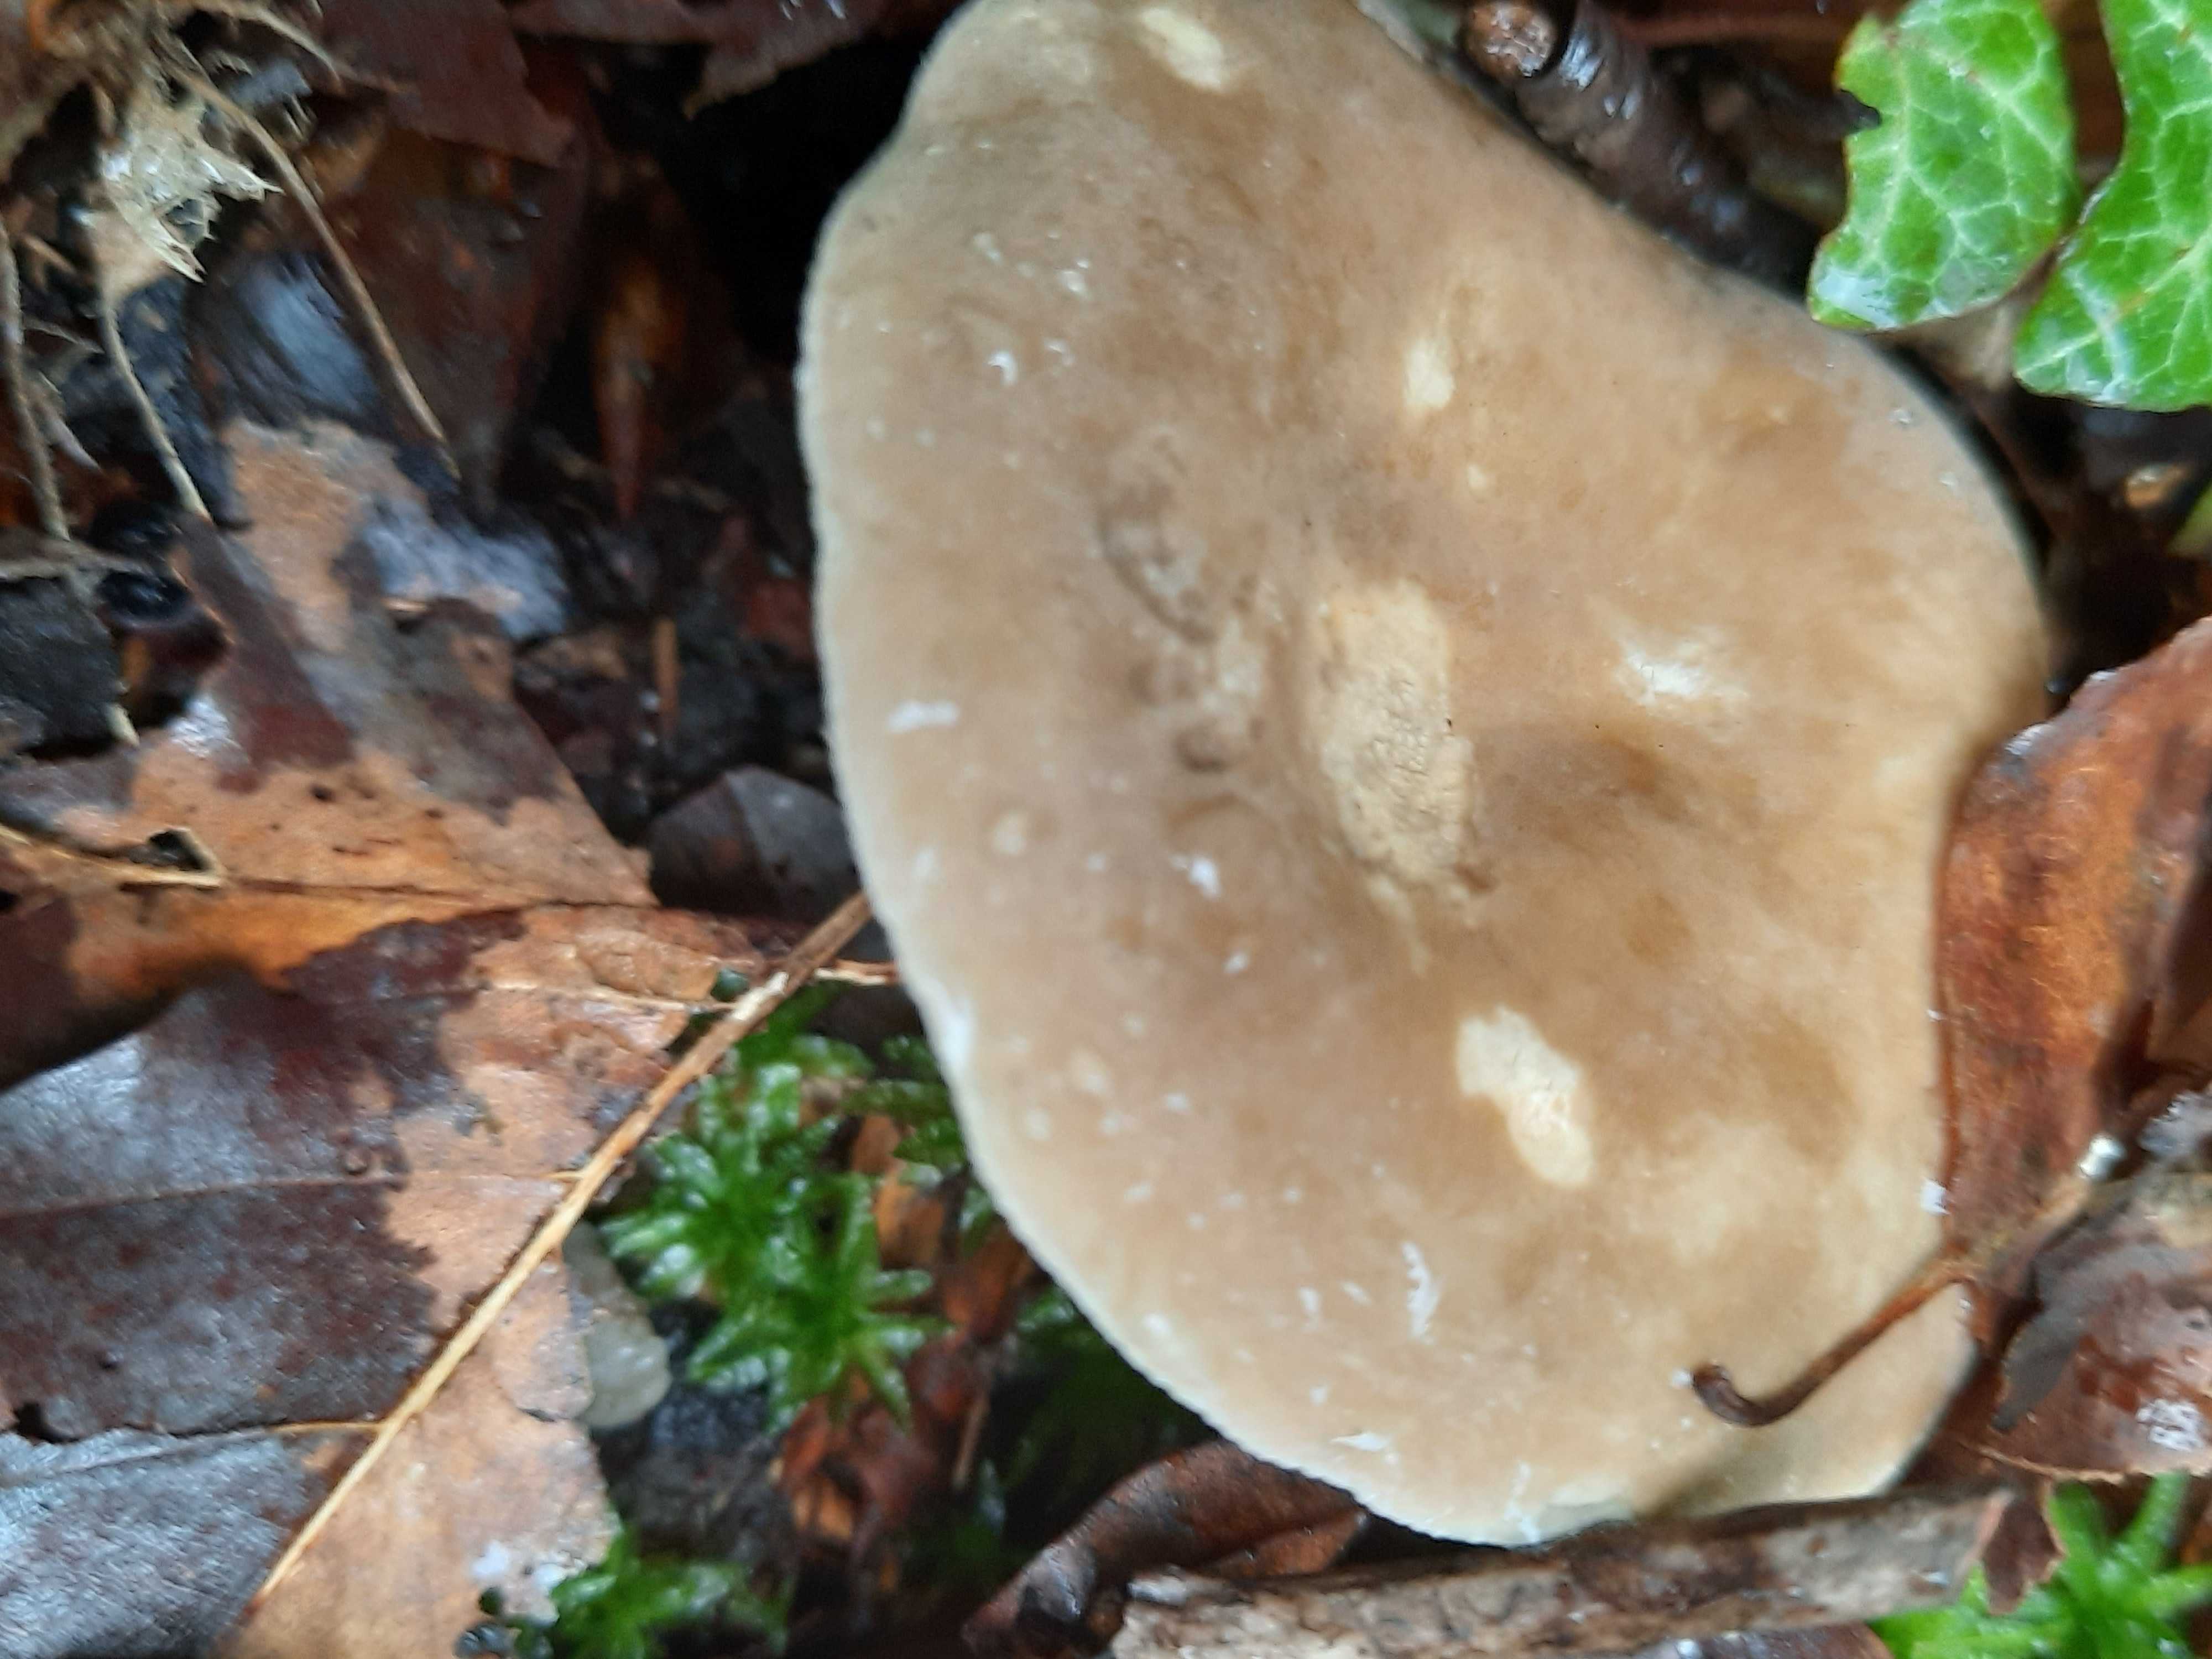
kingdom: Fungi
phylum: Basidiomycota
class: Agaricomycetes
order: Russulales
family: Russulaceae
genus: Lactarius
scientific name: Lactarius
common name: mælkehat
